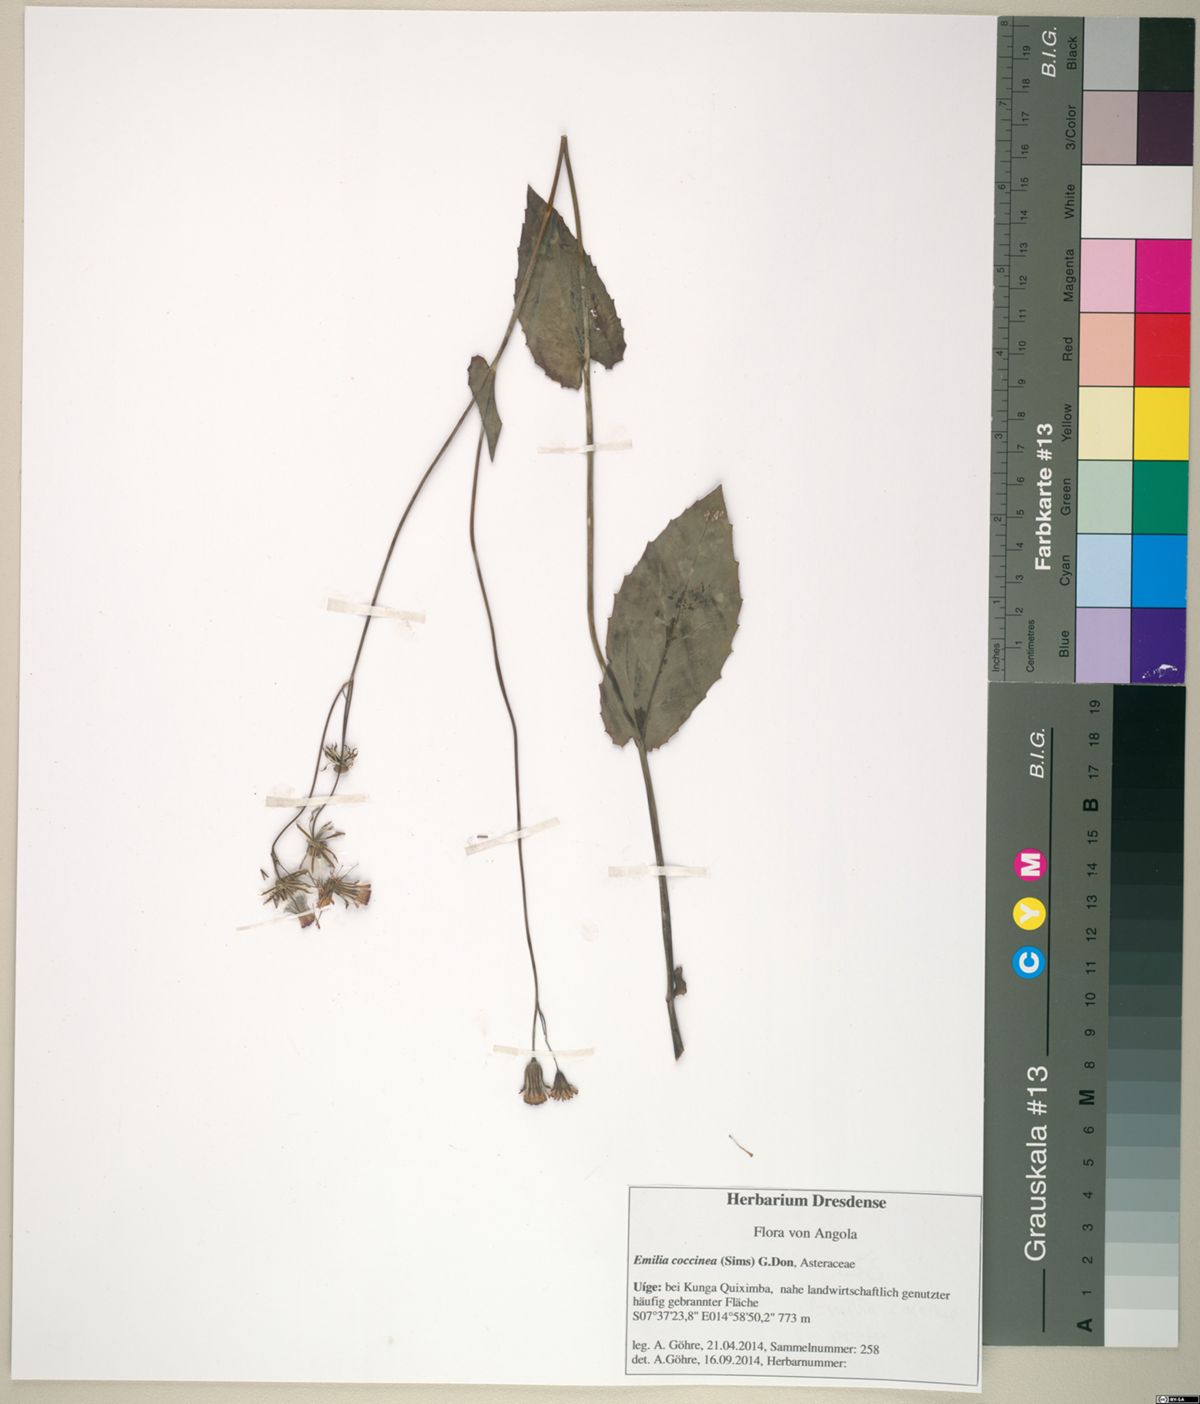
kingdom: Plantae
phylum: Tracheophyta
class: Magnoliopsida
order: Asterales
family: Asteraceae
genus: Emilia
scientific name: Emilia coccinea
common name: Scarlet tasselflower
